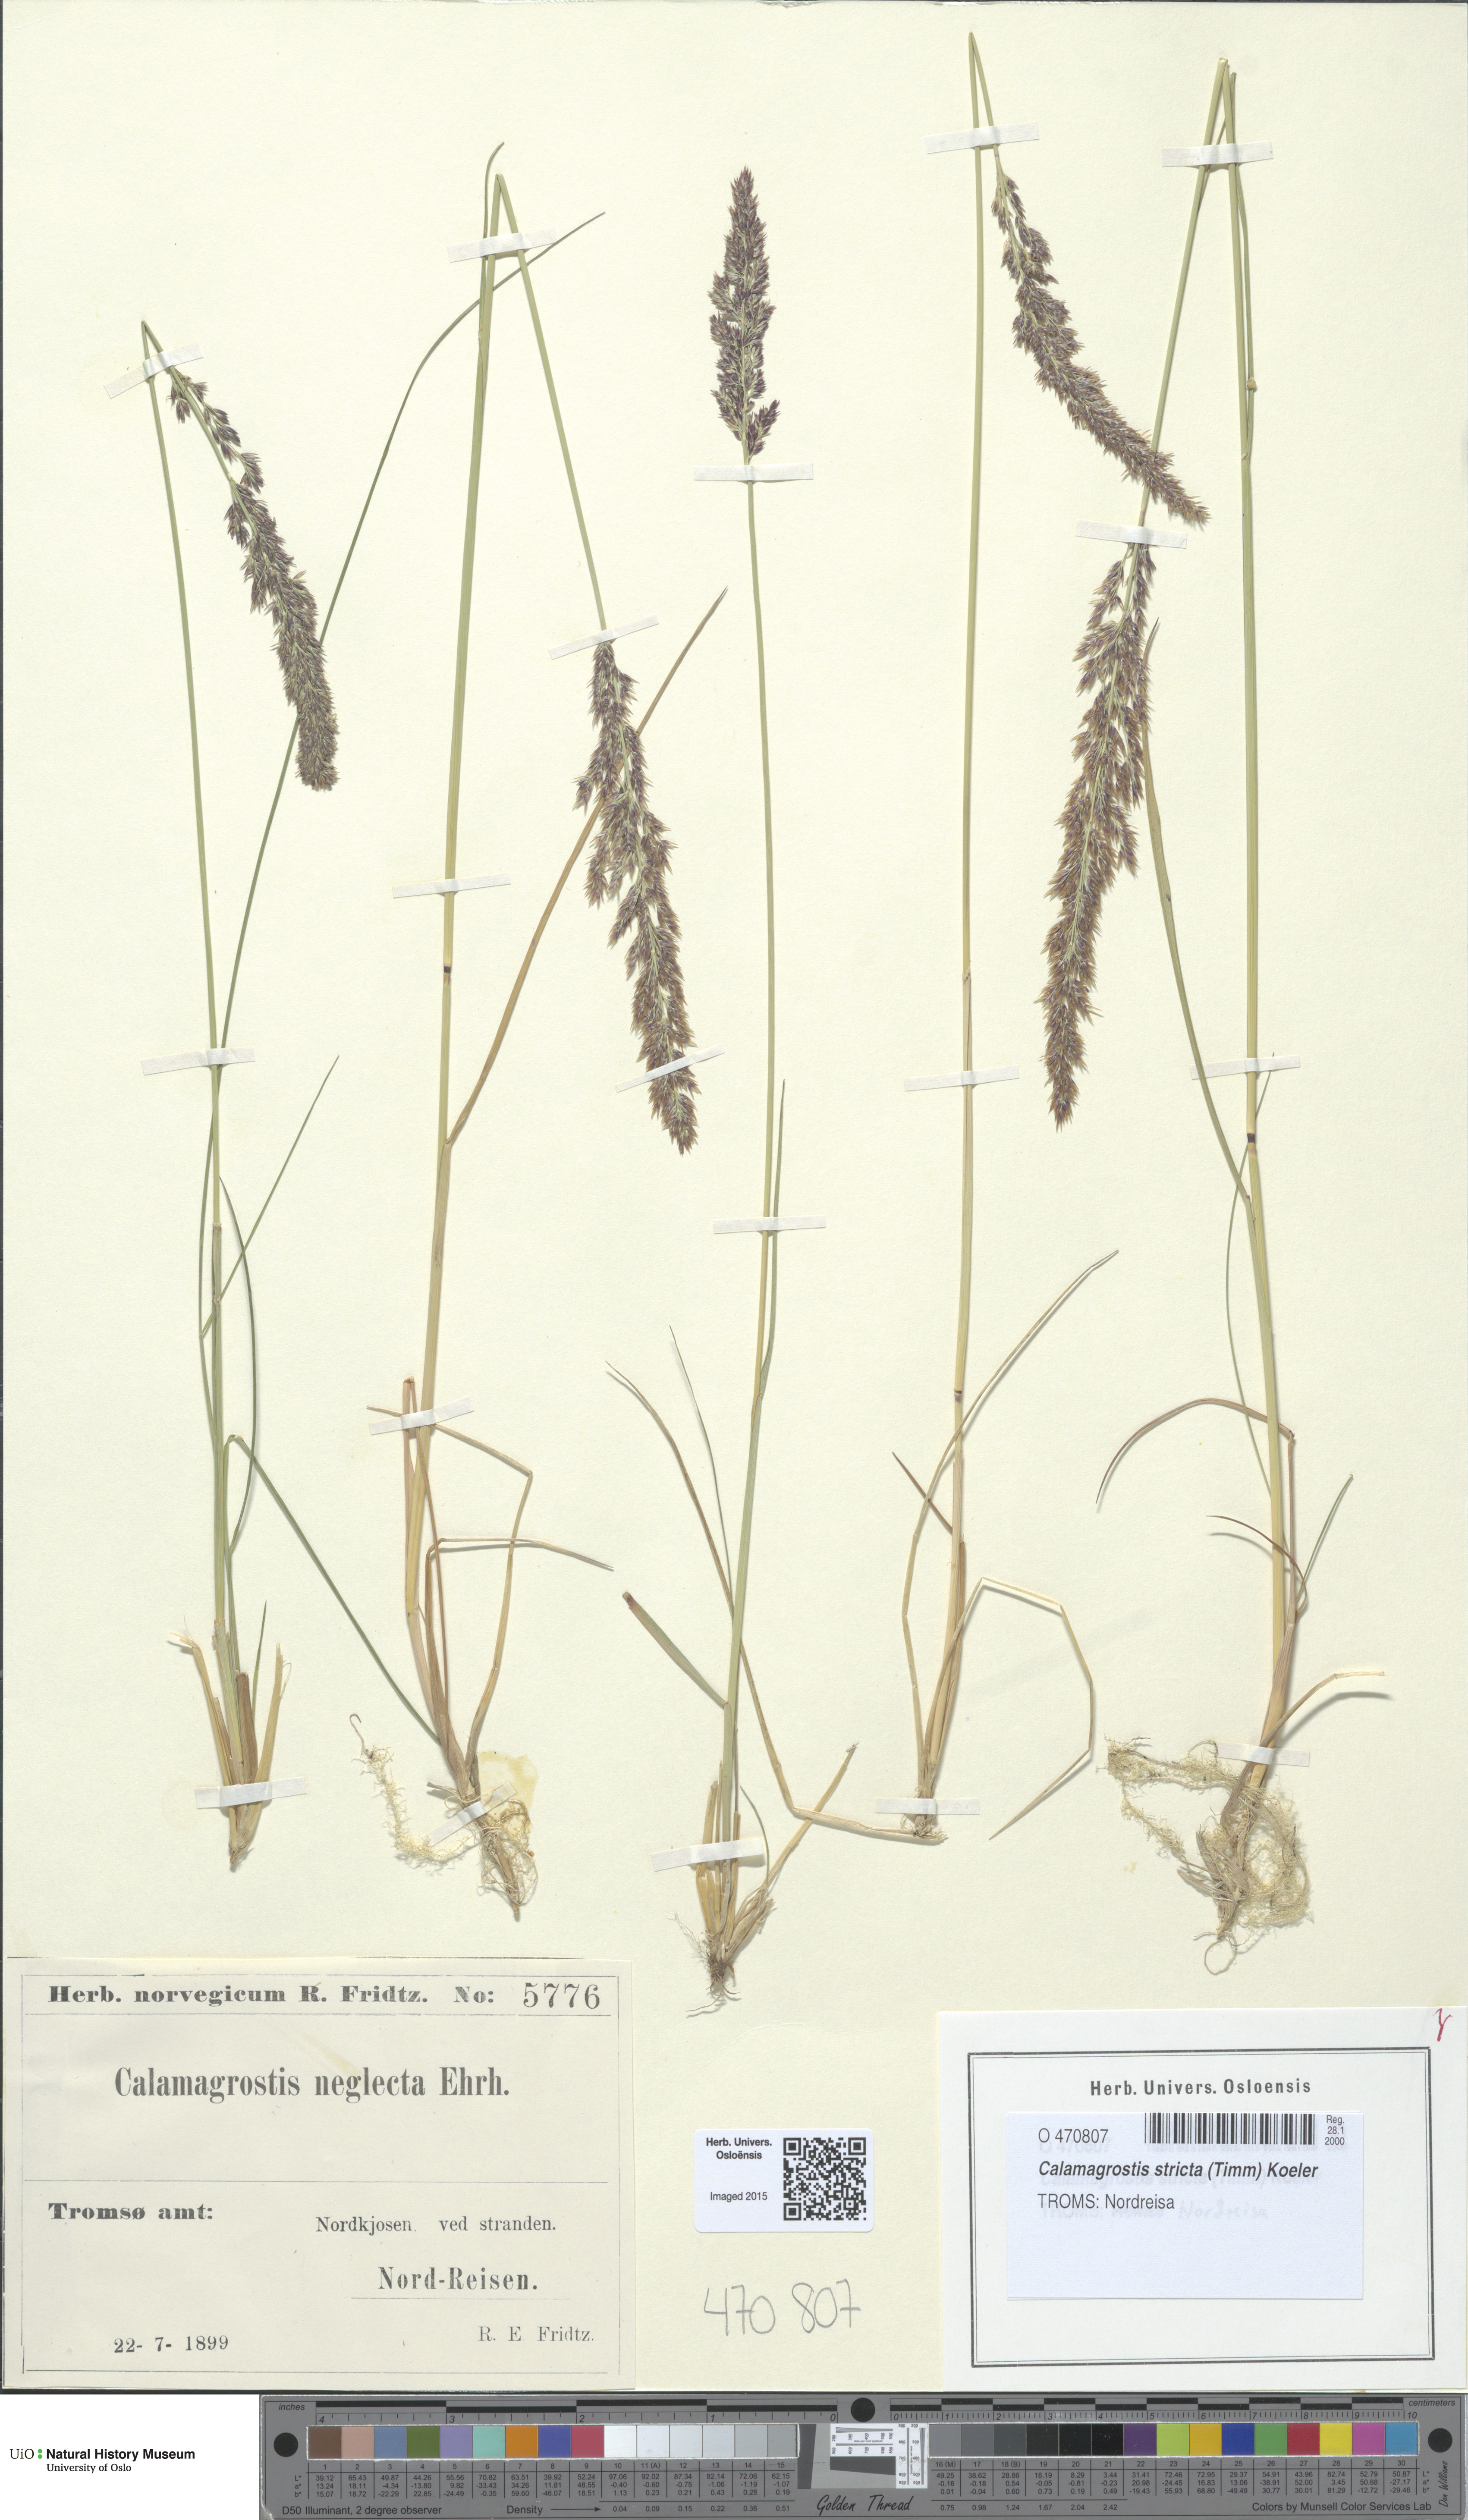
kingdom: Plantae
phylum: Tracheophyta
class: Liliopsida
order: Poales
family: Poaceae
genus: Achnatherum
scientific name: Achnatherum calamagrostis
